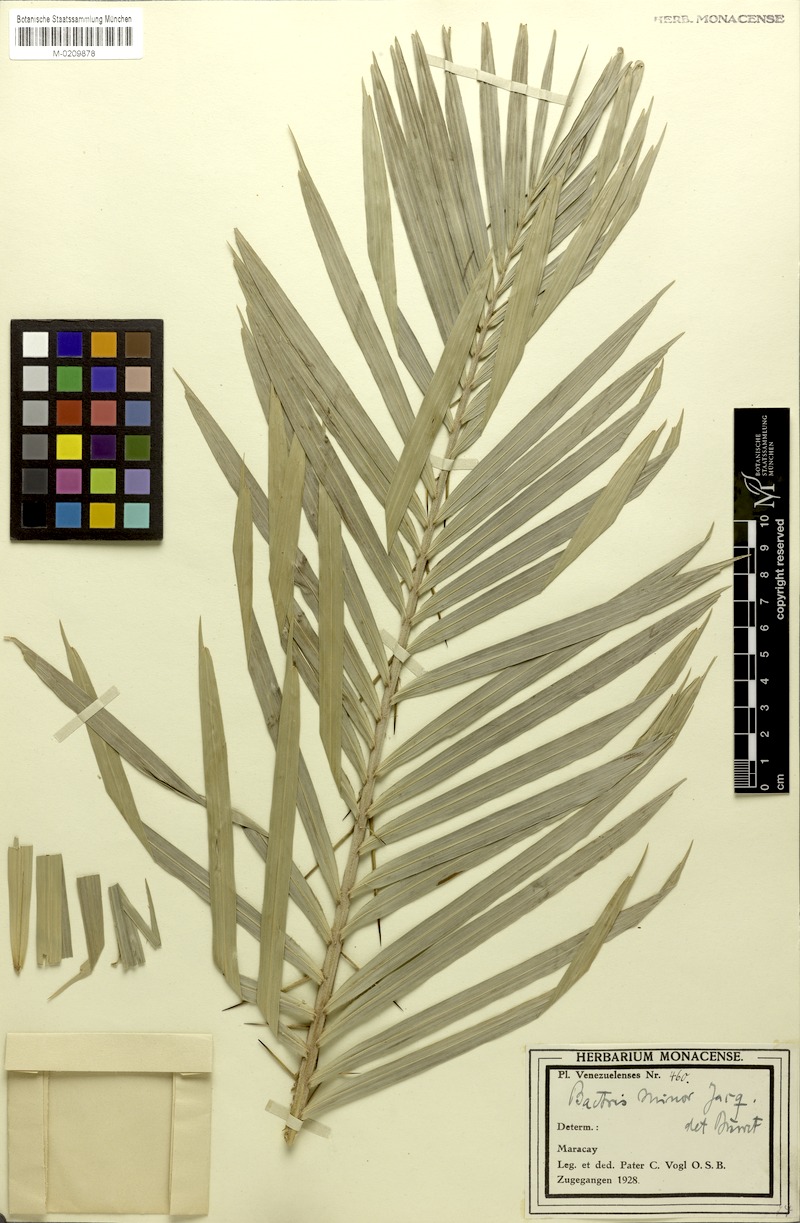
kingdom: Plantae
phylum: Tracheophyta
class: Liliopsida
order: Arecales
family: Arecaceae
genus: Bactris
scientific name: Bactris guineensis
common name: Tobago cane
